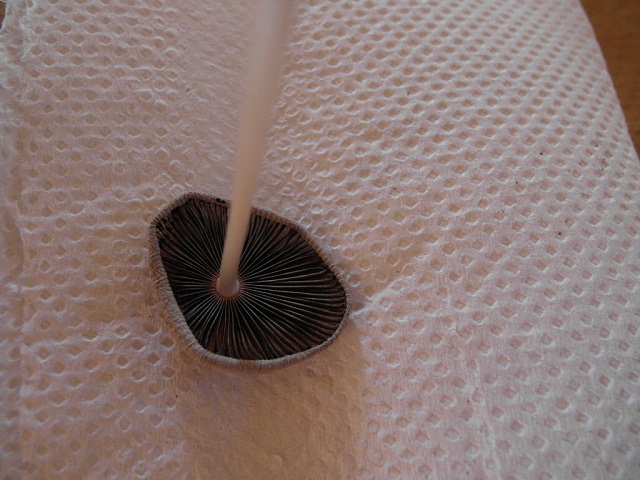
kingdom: Fungi
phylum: Basidiomycota
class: Agaricomycetes
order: Agaricales
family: Psathyrellaceae
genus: Parasola
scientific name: Parasola auricoma
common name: hansens hjulhat
